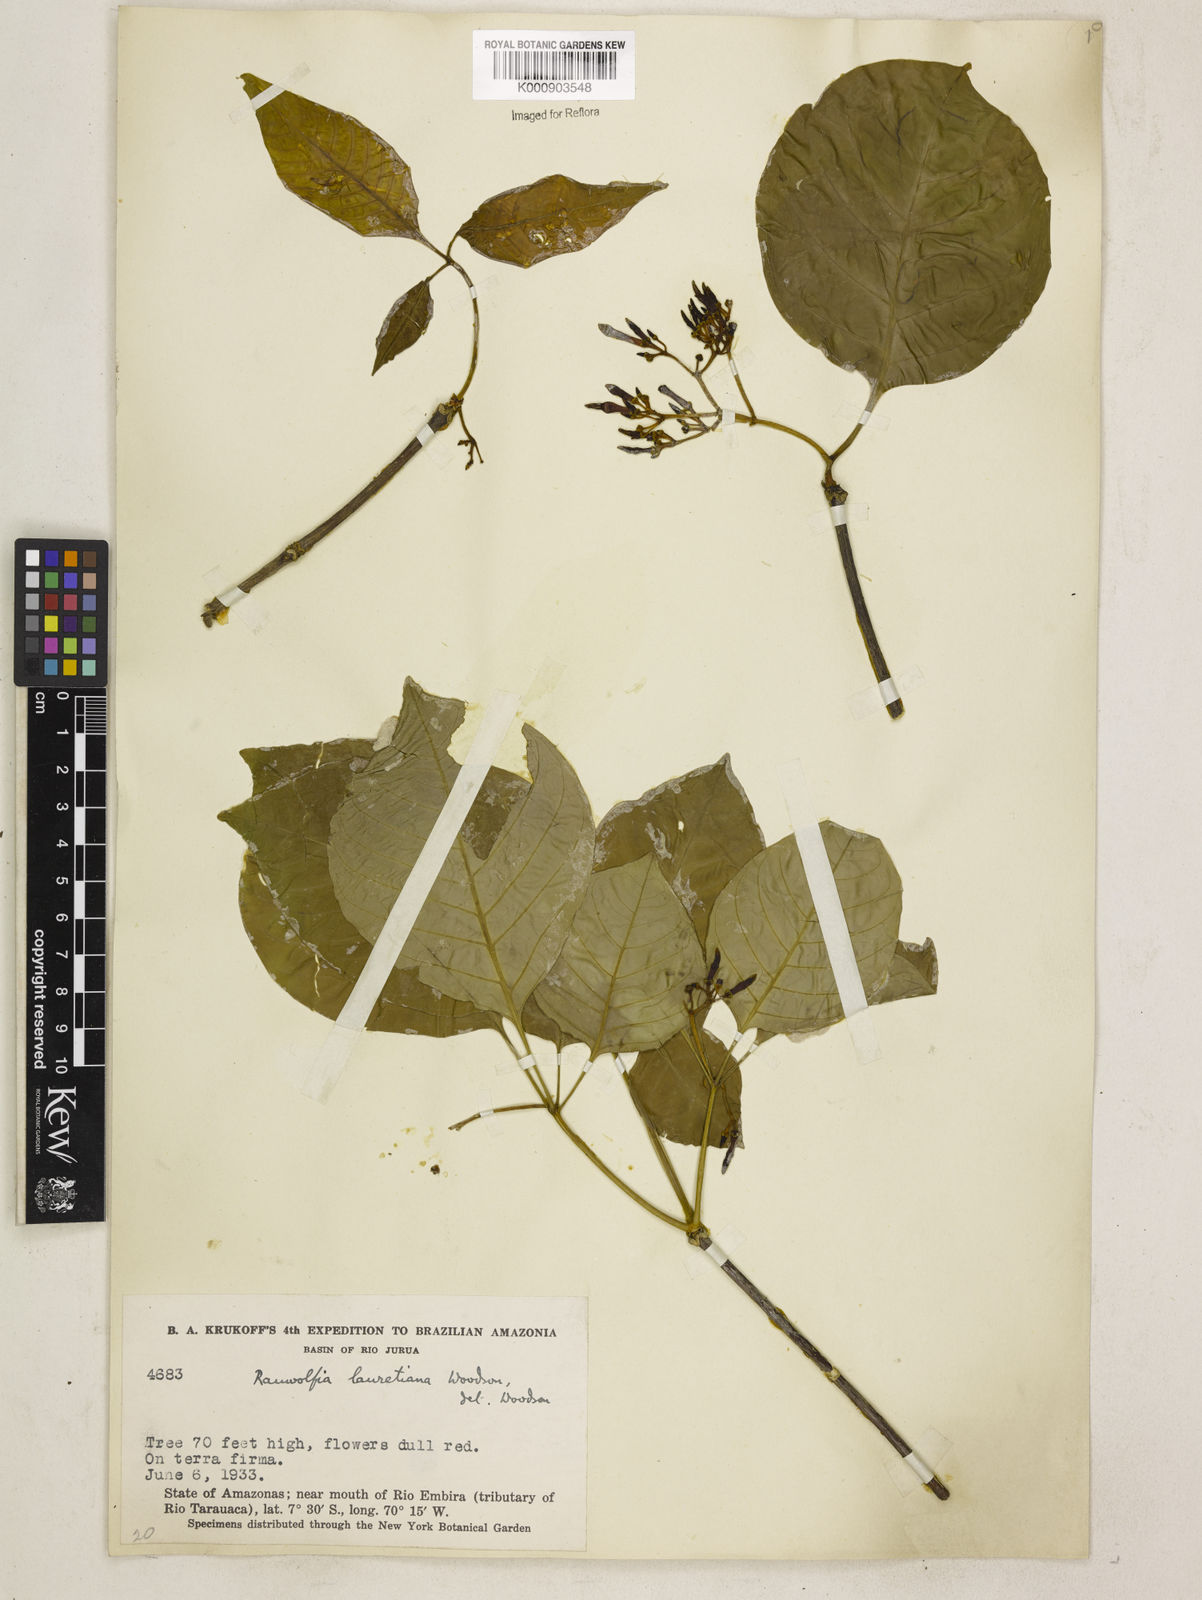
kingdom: Plantae
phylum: Tracheophyta
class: Magnoliopsida
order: Gentianales
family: Apocynaceae
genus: Rauvolfia
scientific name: Rauvolfia
